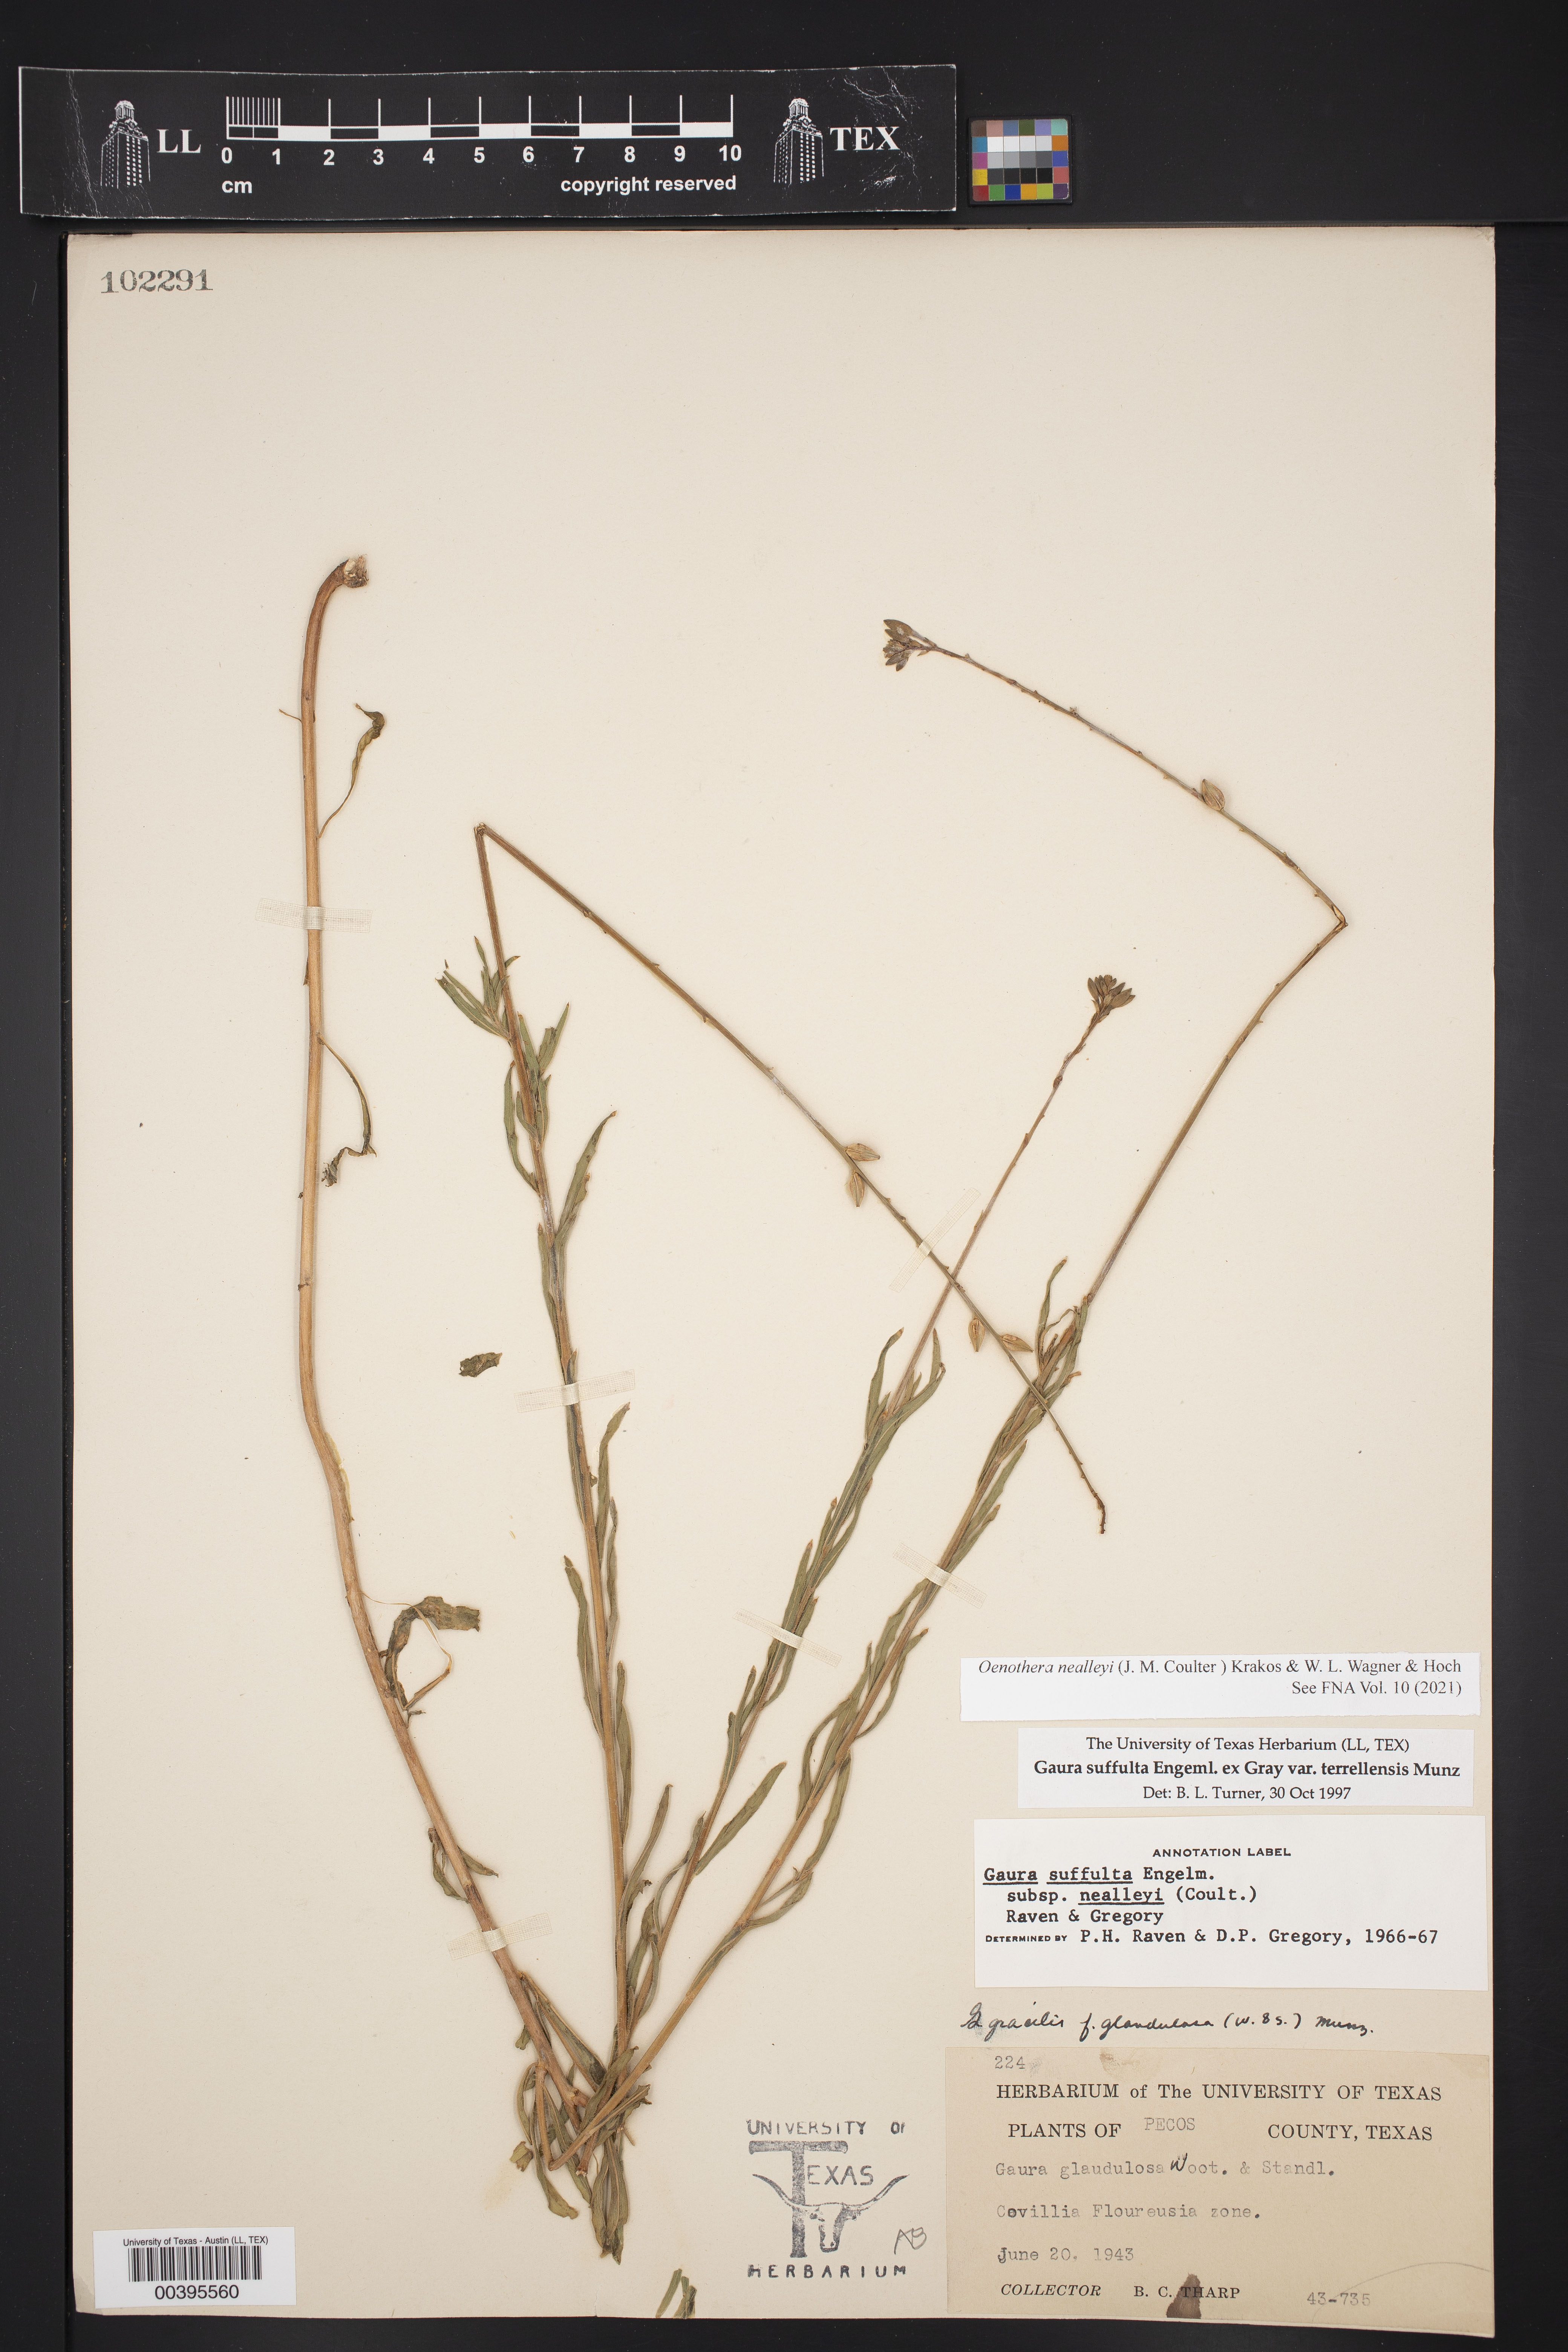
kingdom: Plantae
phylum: Tracheophyta
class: Magnoliopsida
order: Myrtales
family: Onagraceae
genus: Oenothera
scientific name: Oenothera suffulta
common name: Kisses
